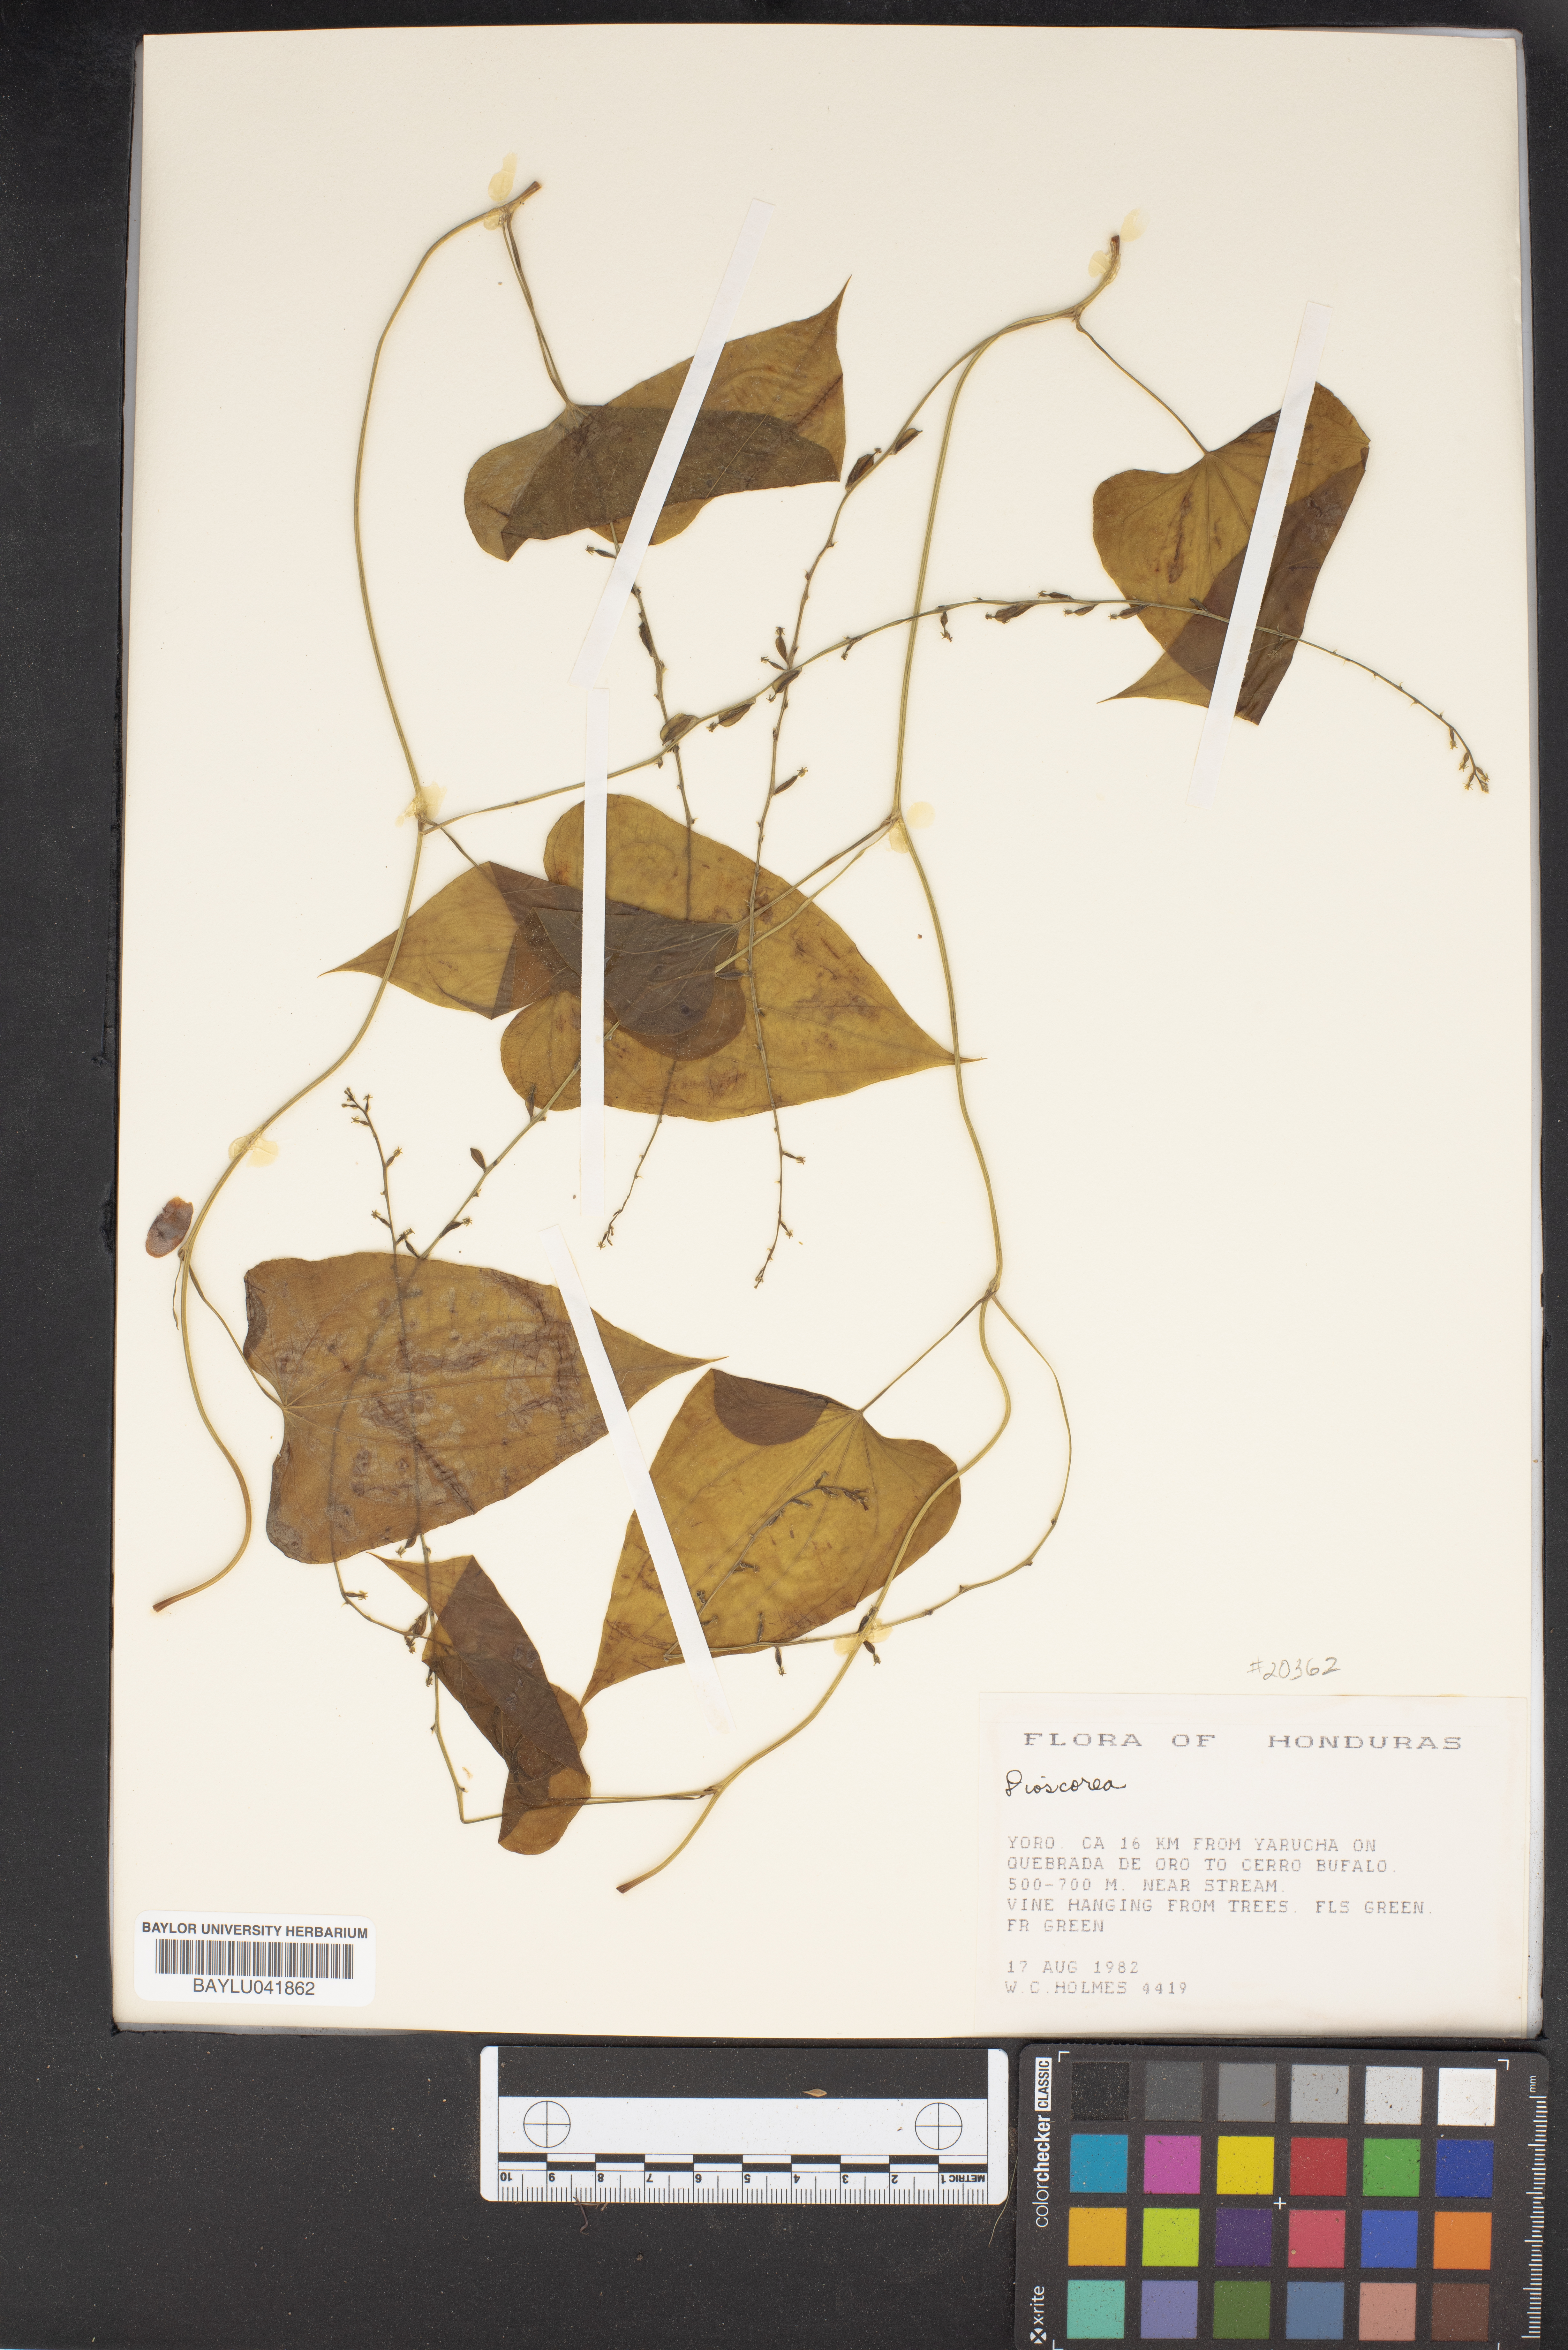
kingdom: Plantae
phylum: Tracheophyta
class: Liliopsida
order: Dioscoreales
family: Dioscoreaceae
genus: Dioscorea
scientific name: Dioscorea
